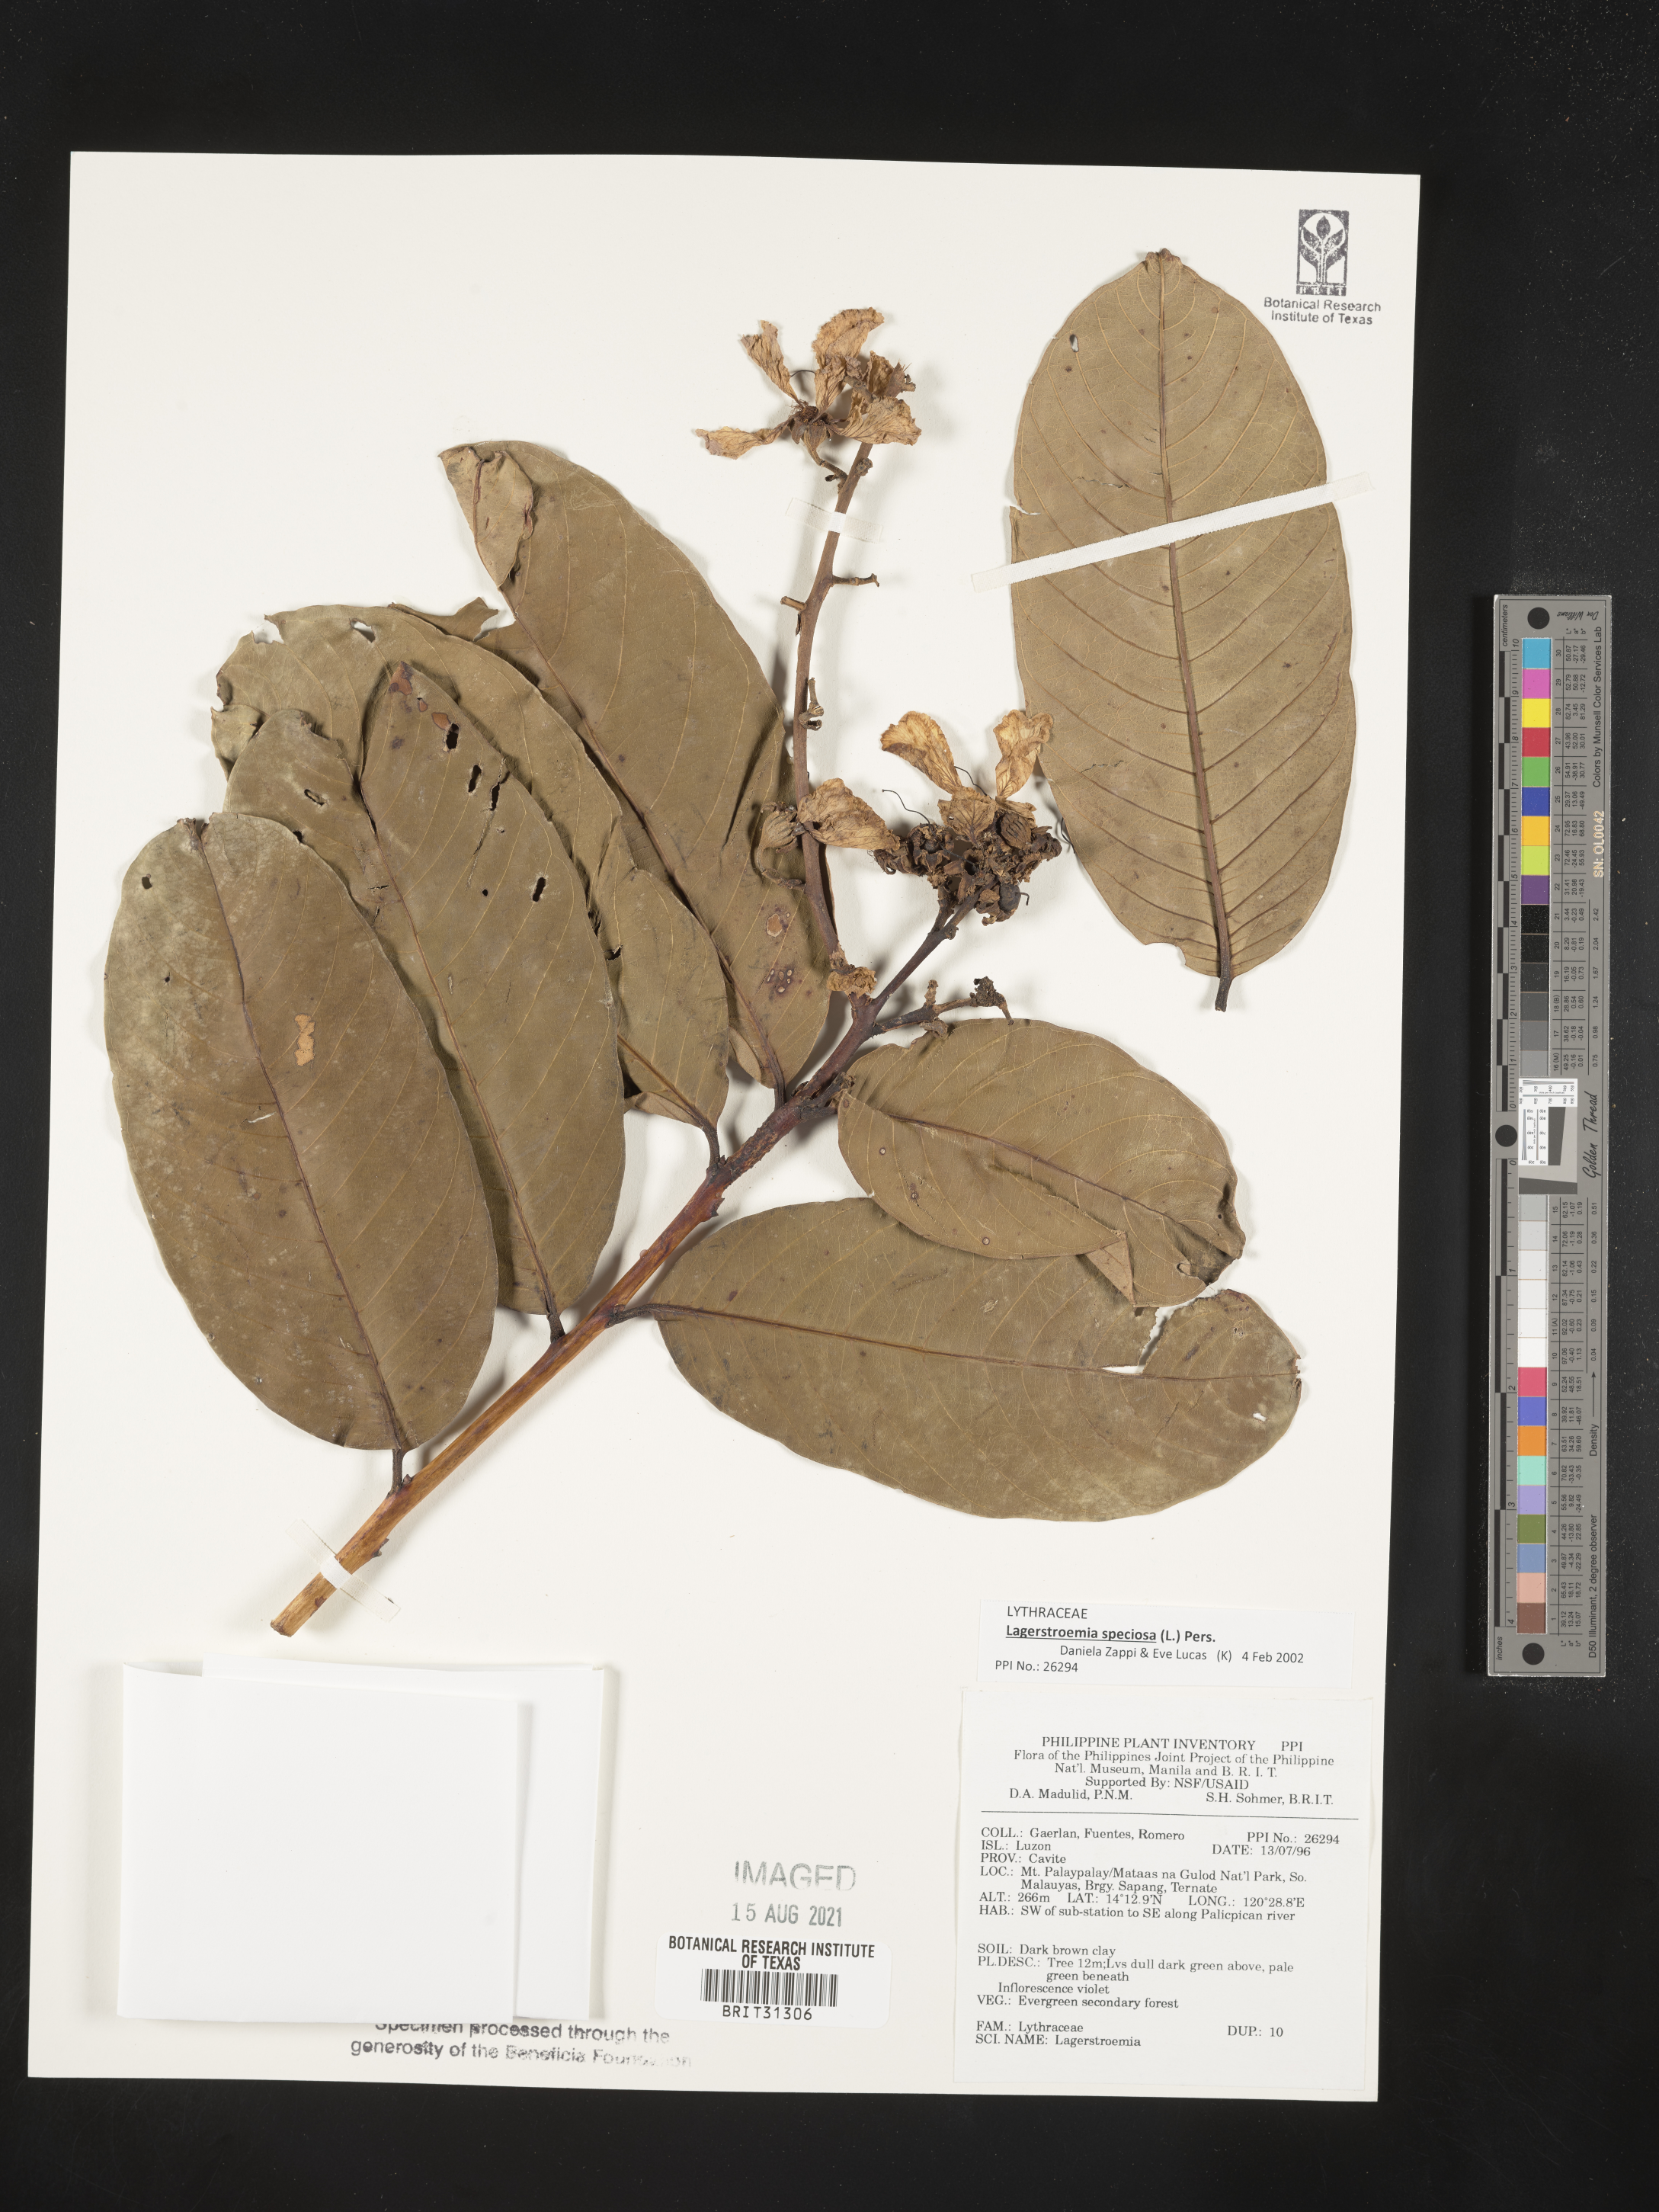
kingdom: Plantae
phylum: Tracheophyta
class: Magnoliopsida
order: Myrtales
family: Lythraceae
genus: Lagerstroemia
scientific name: Lagerstroemia
